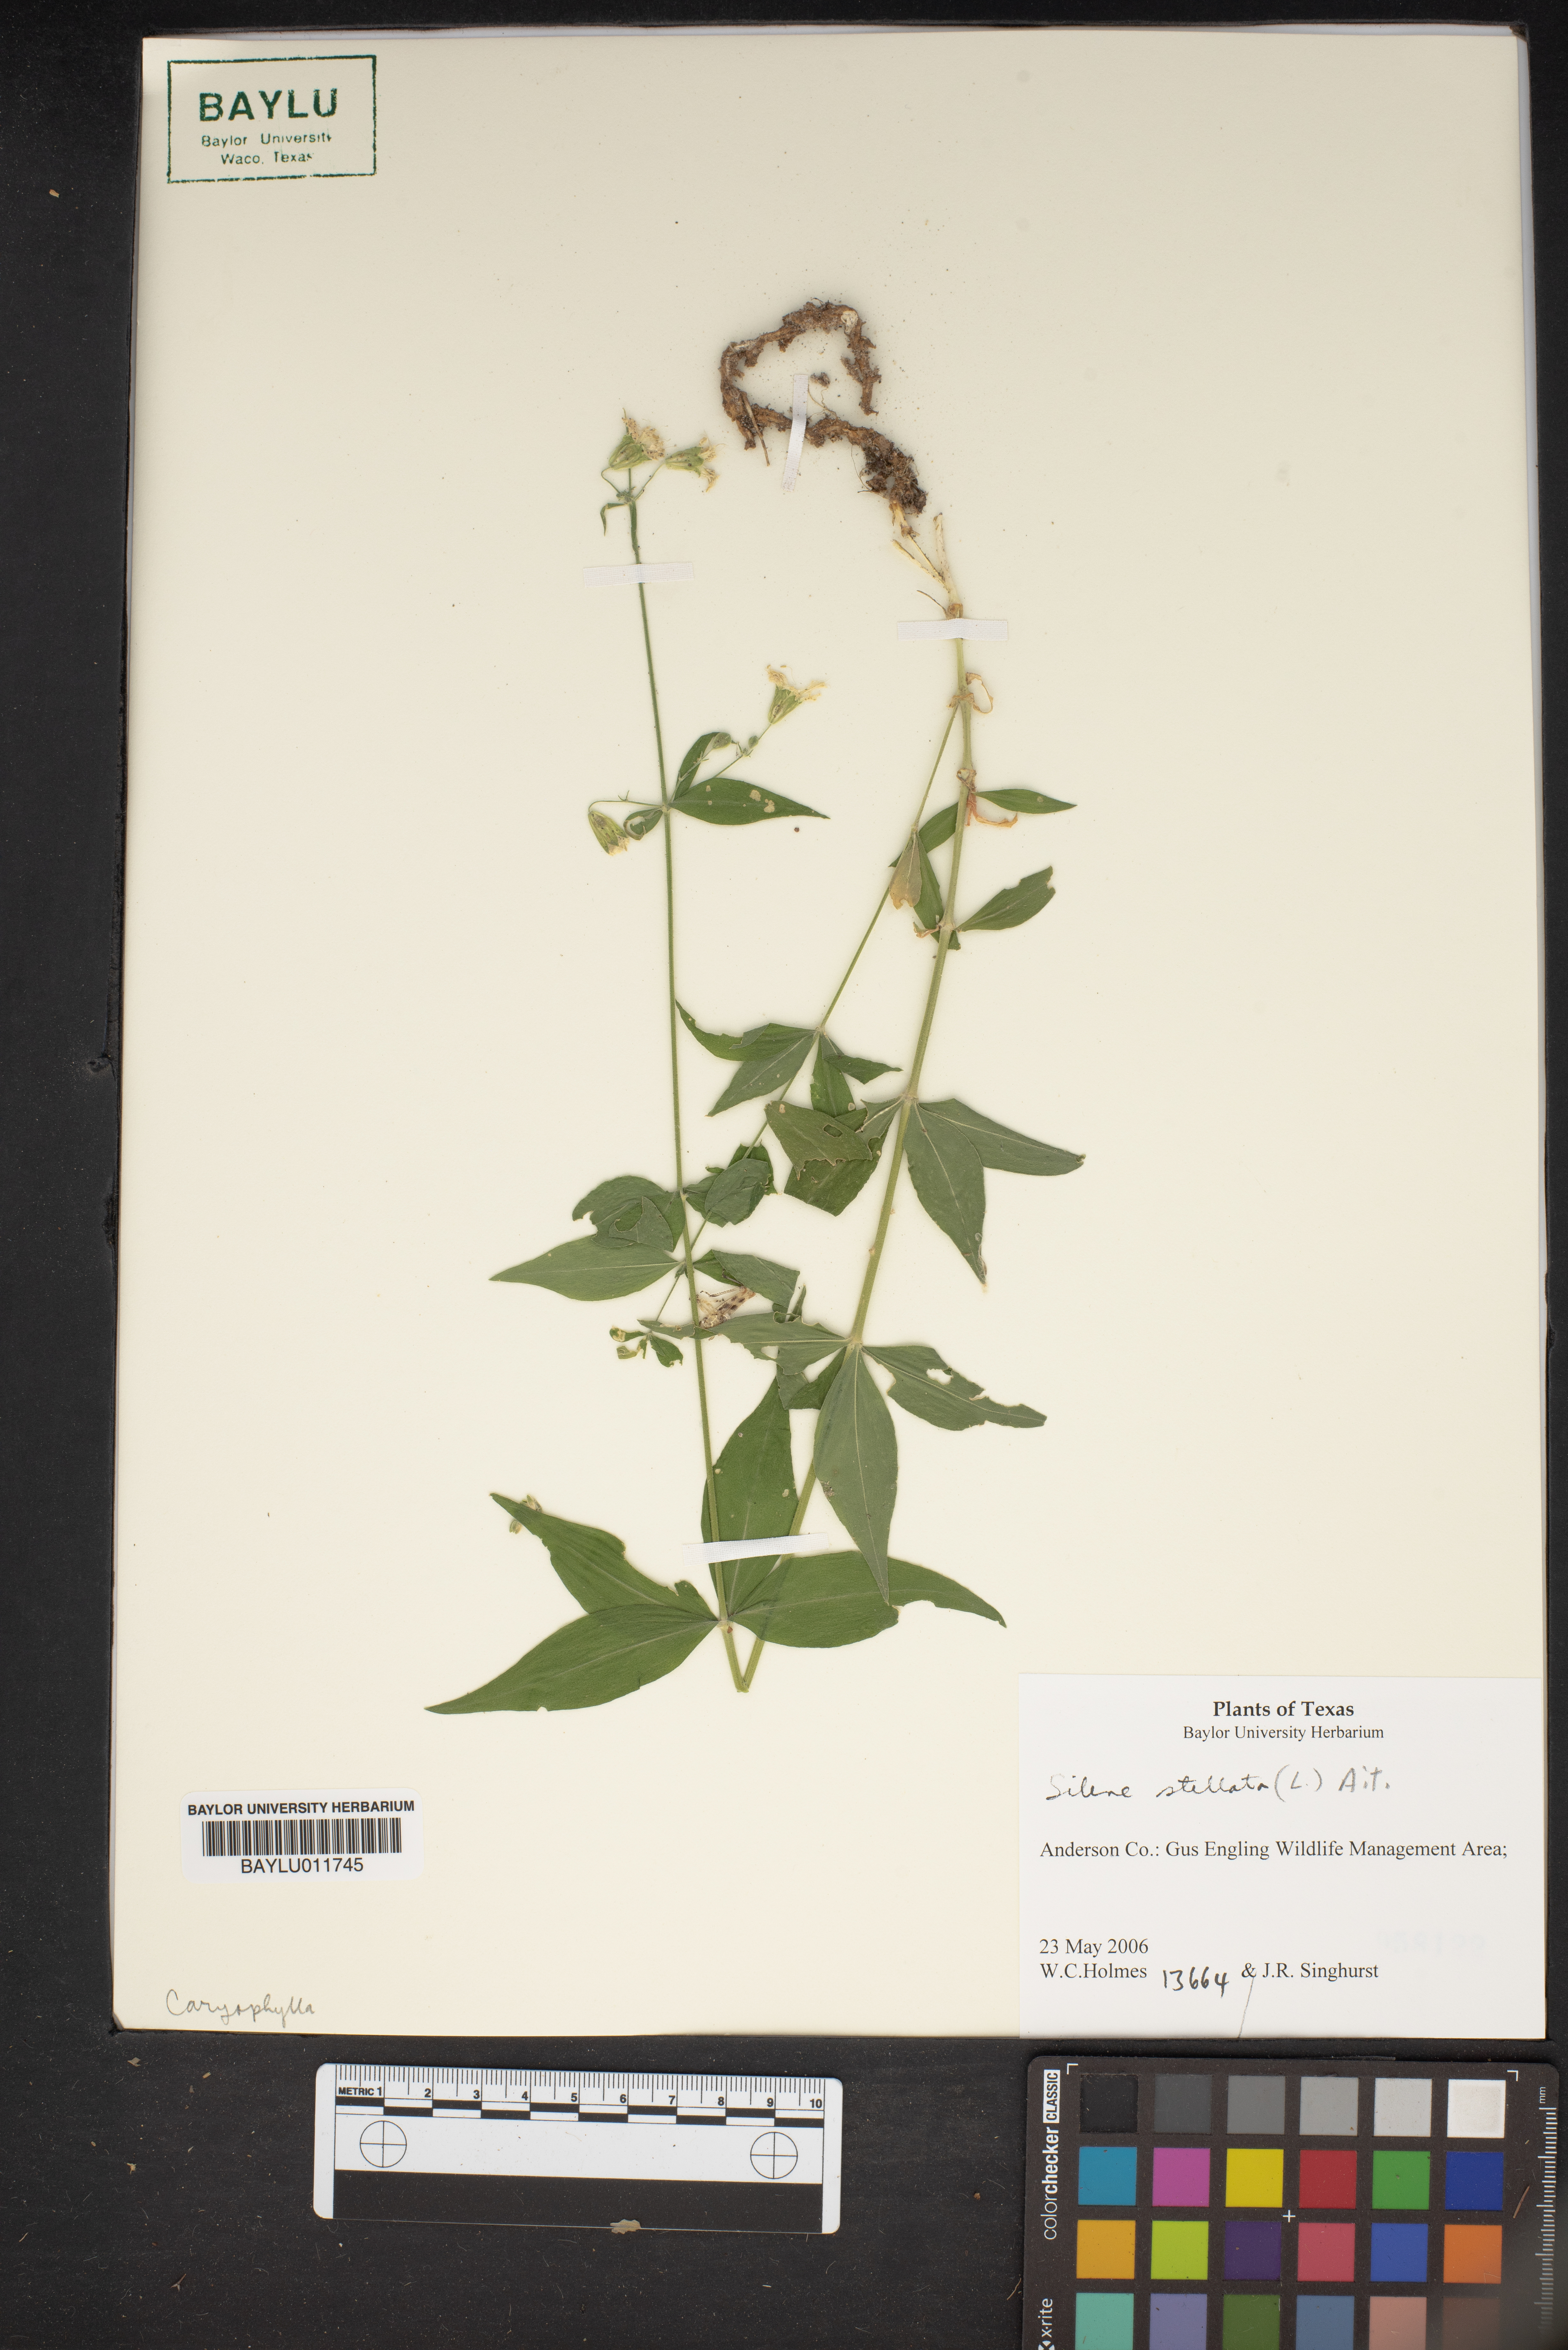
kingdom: Plantae
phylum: Tracheophyta
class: Magnoliopsida
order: Caryophyllales
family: Caryophyllaceae
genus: Silene
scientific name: Silene stellata
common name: Starry campion
